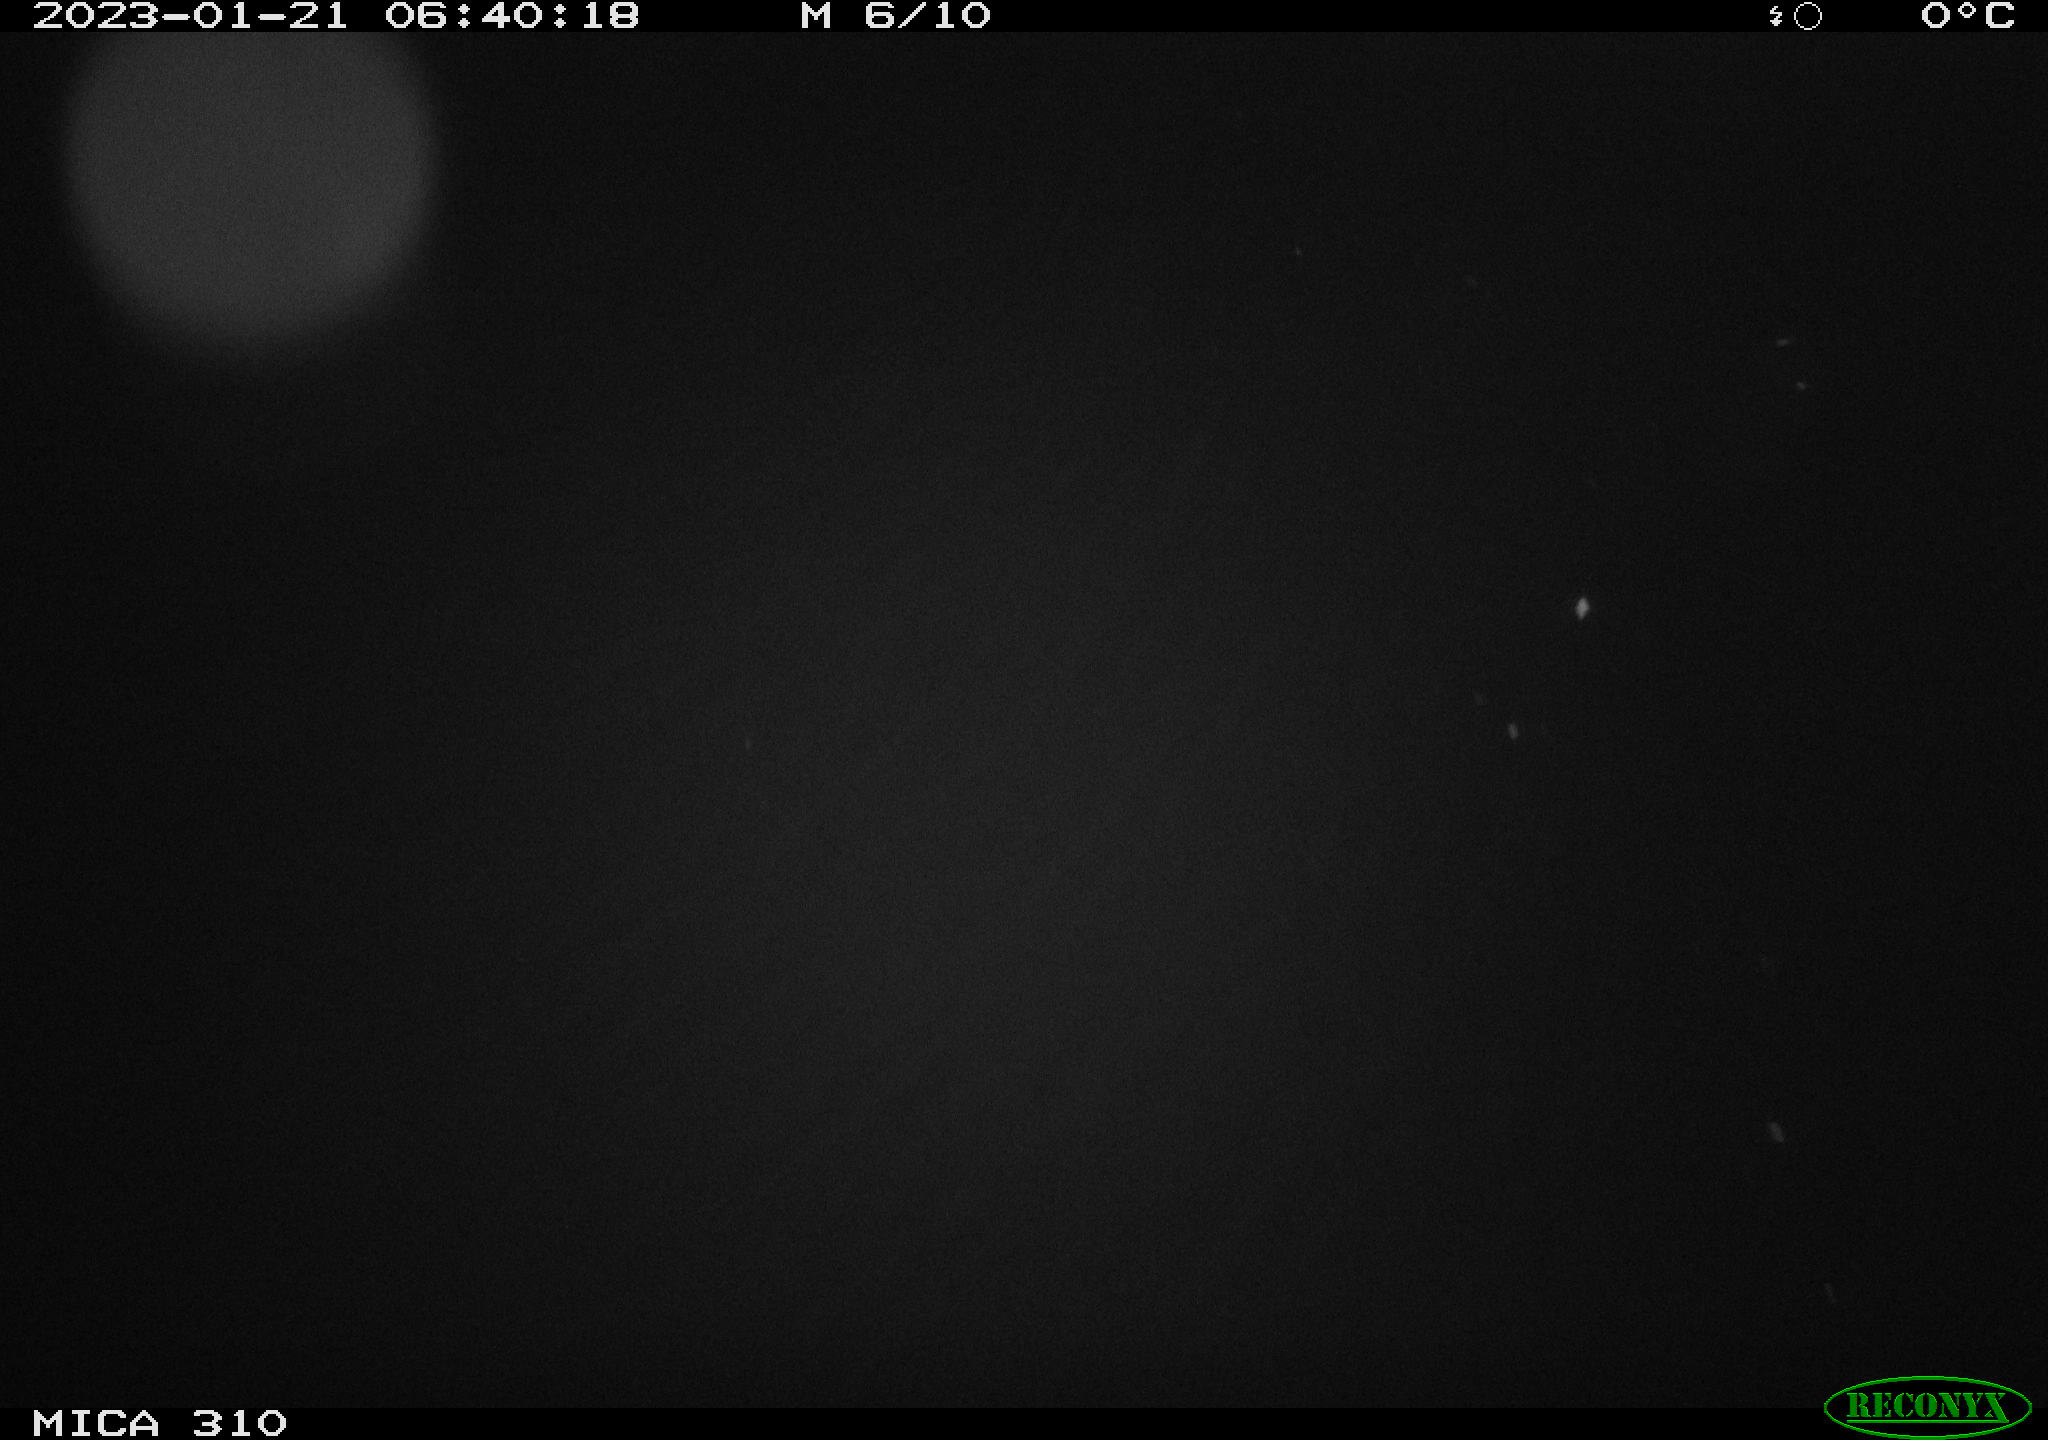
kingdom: Animalia
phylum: Chordata
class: Mammalia
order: Rodentia
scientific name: Rodentia
